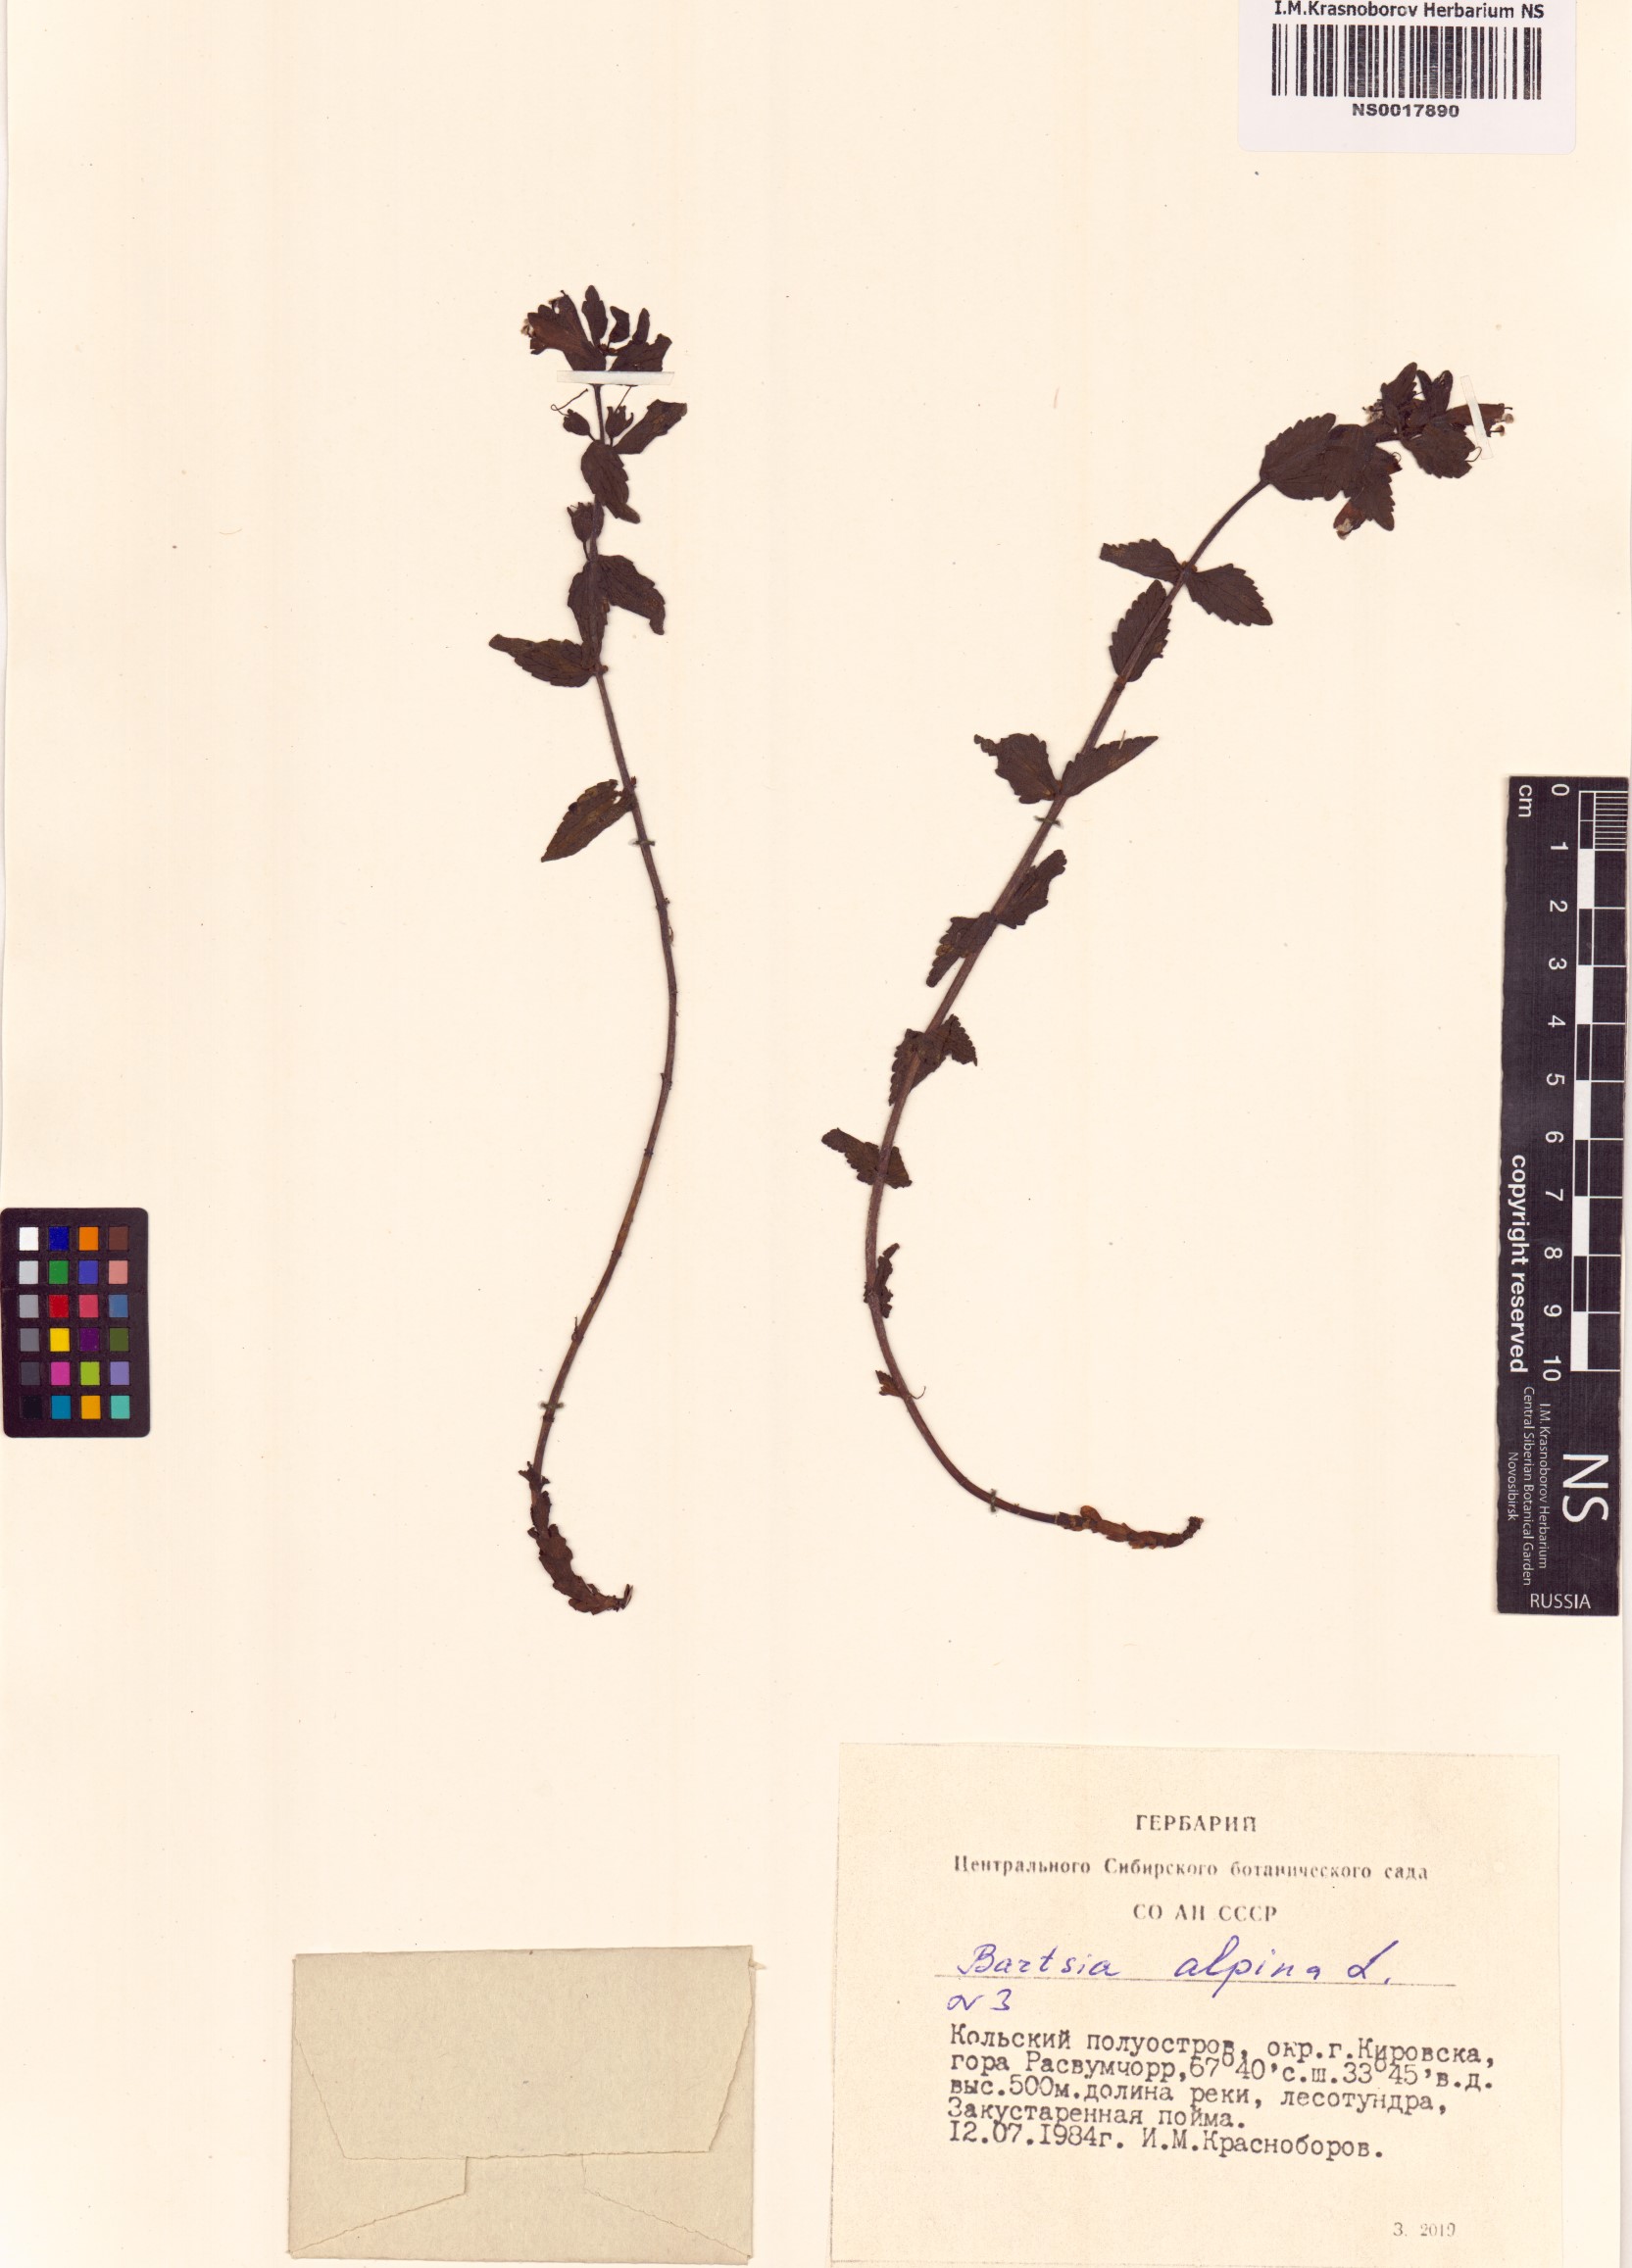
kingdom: Plantae
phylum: Tracheophyta
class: Magnoliopsida
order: Lamiales
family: Orobanchaceae
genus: Bartsia
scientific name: Bartsia alpina
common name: Alpine bartsia
